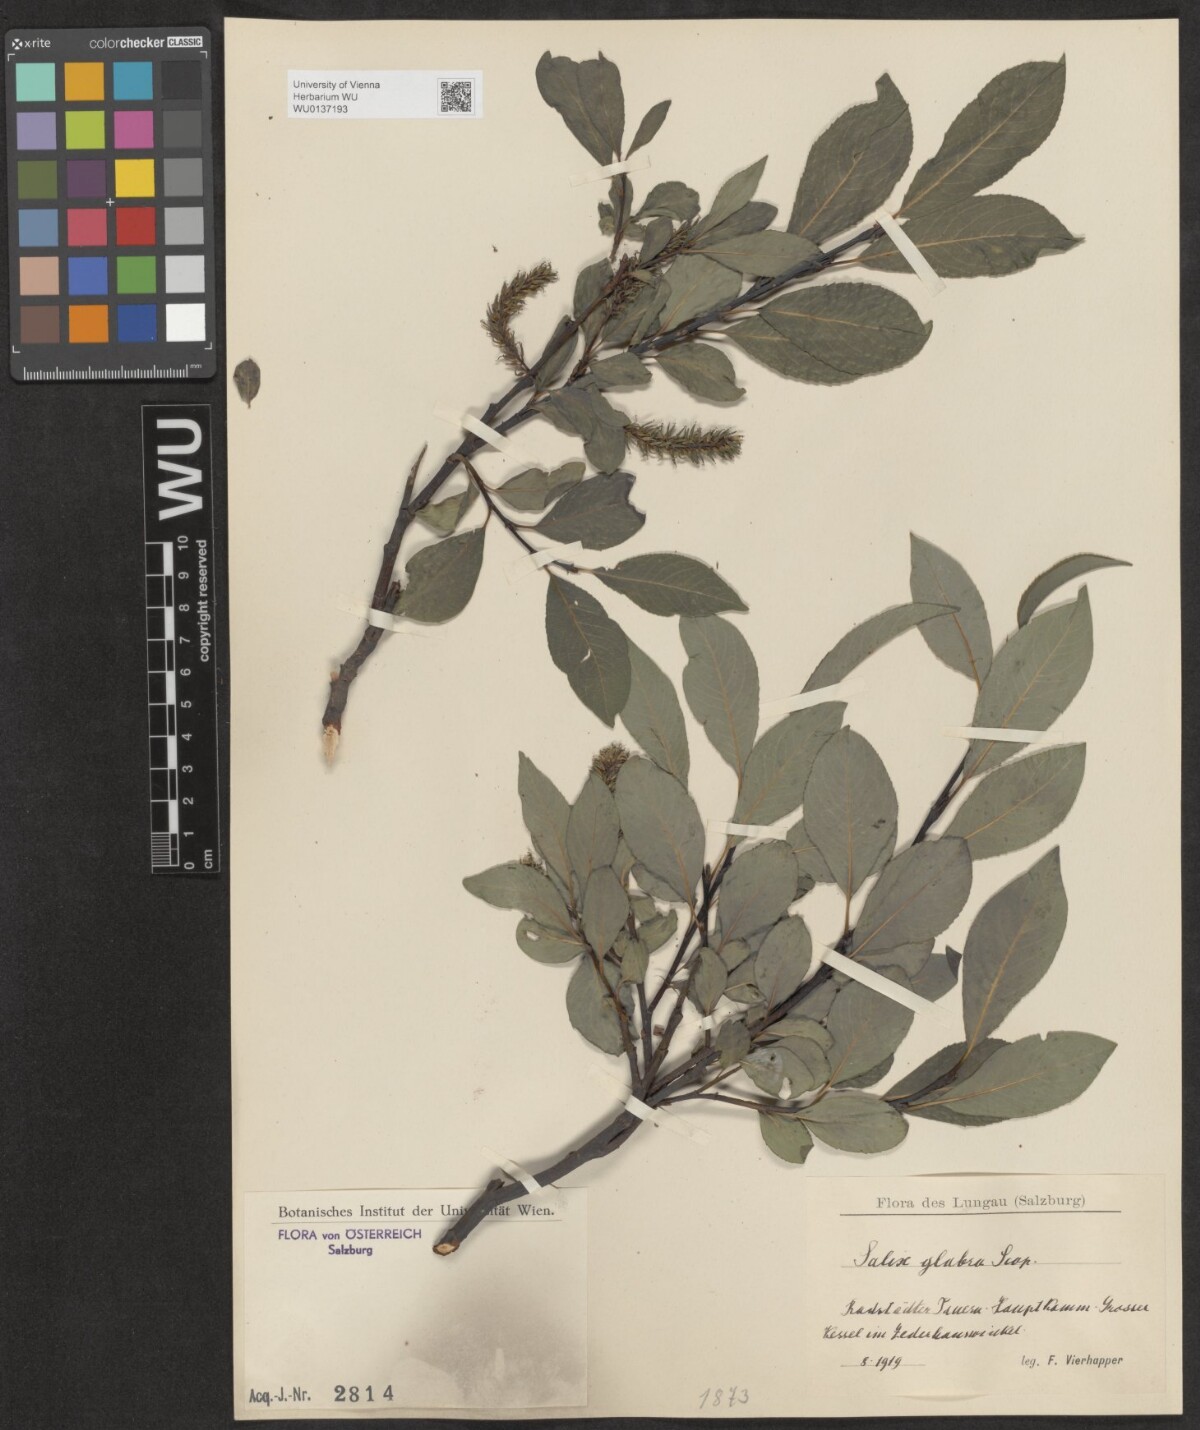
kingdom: Plantae
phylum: Tracheophyta
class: Magnoliopsida
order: Malpighiales
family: Salicaceae
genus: Salix
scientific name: Salix glabra
